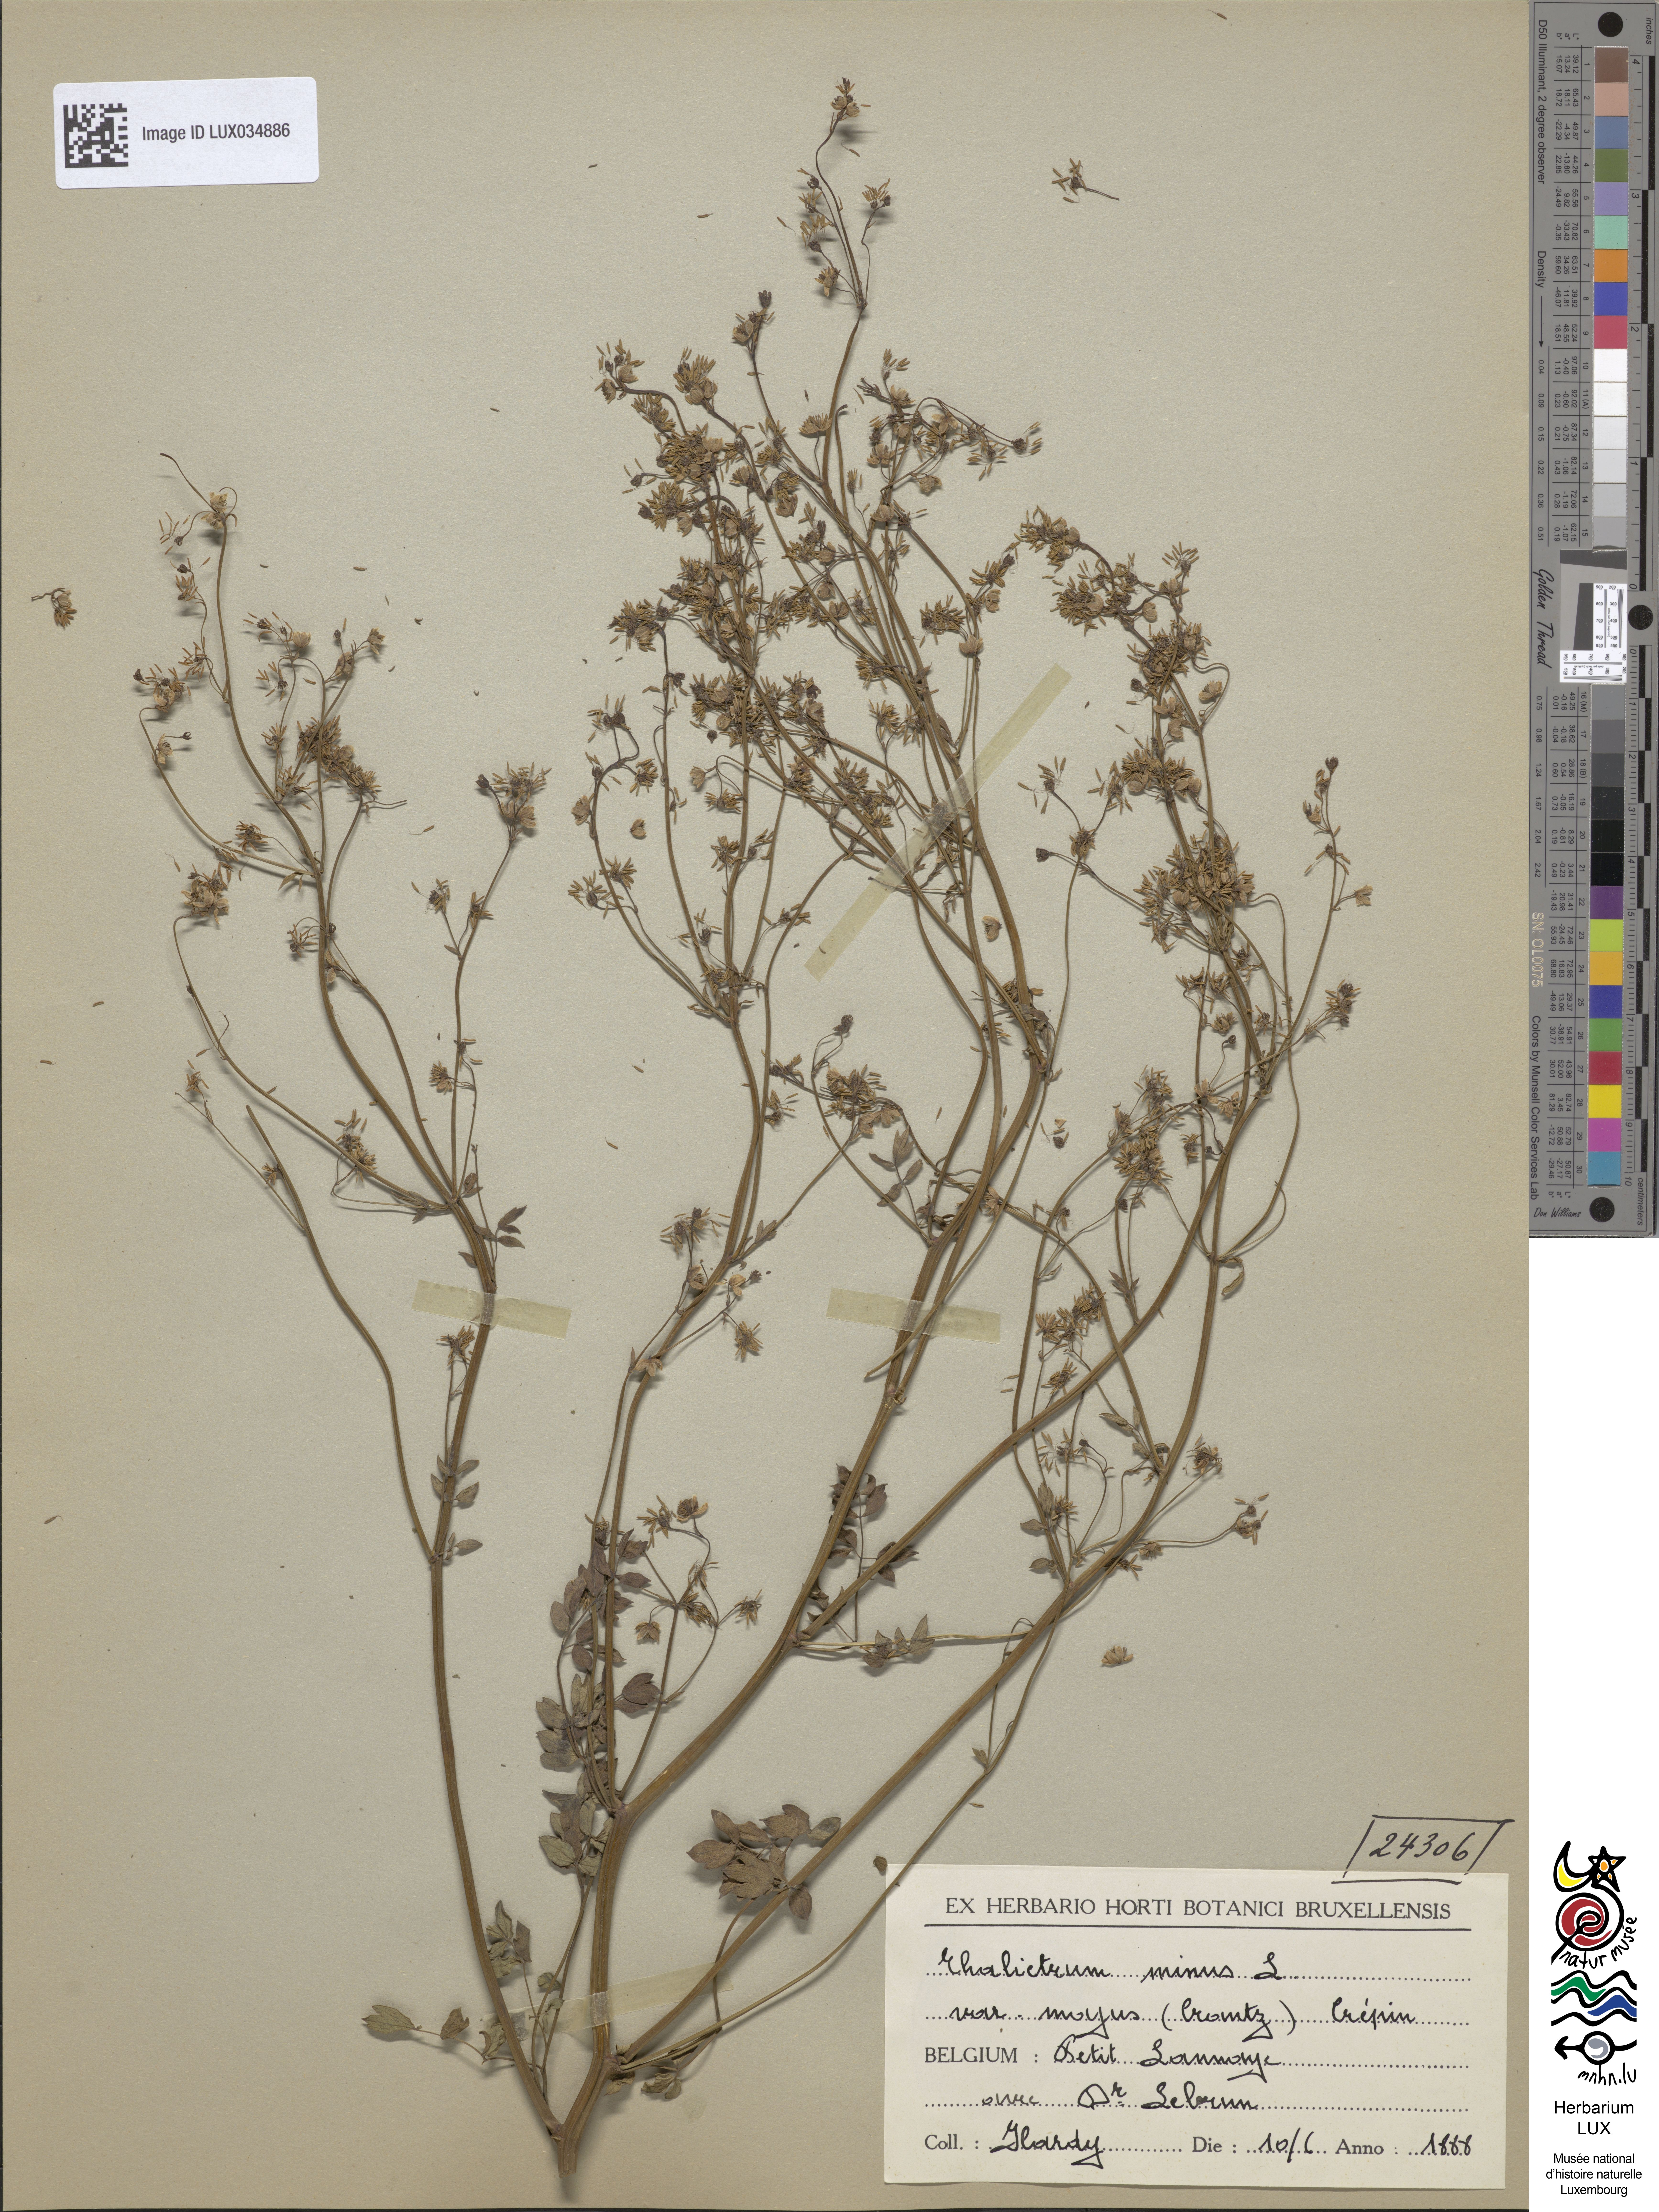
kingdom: Plantae
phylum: Tracheophyta
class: Magnoliopsida
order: Ranunculales
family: Ranunculaceae
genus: Thalictrum
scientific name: Thalictrum minus
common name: Lesser meadow-rue
